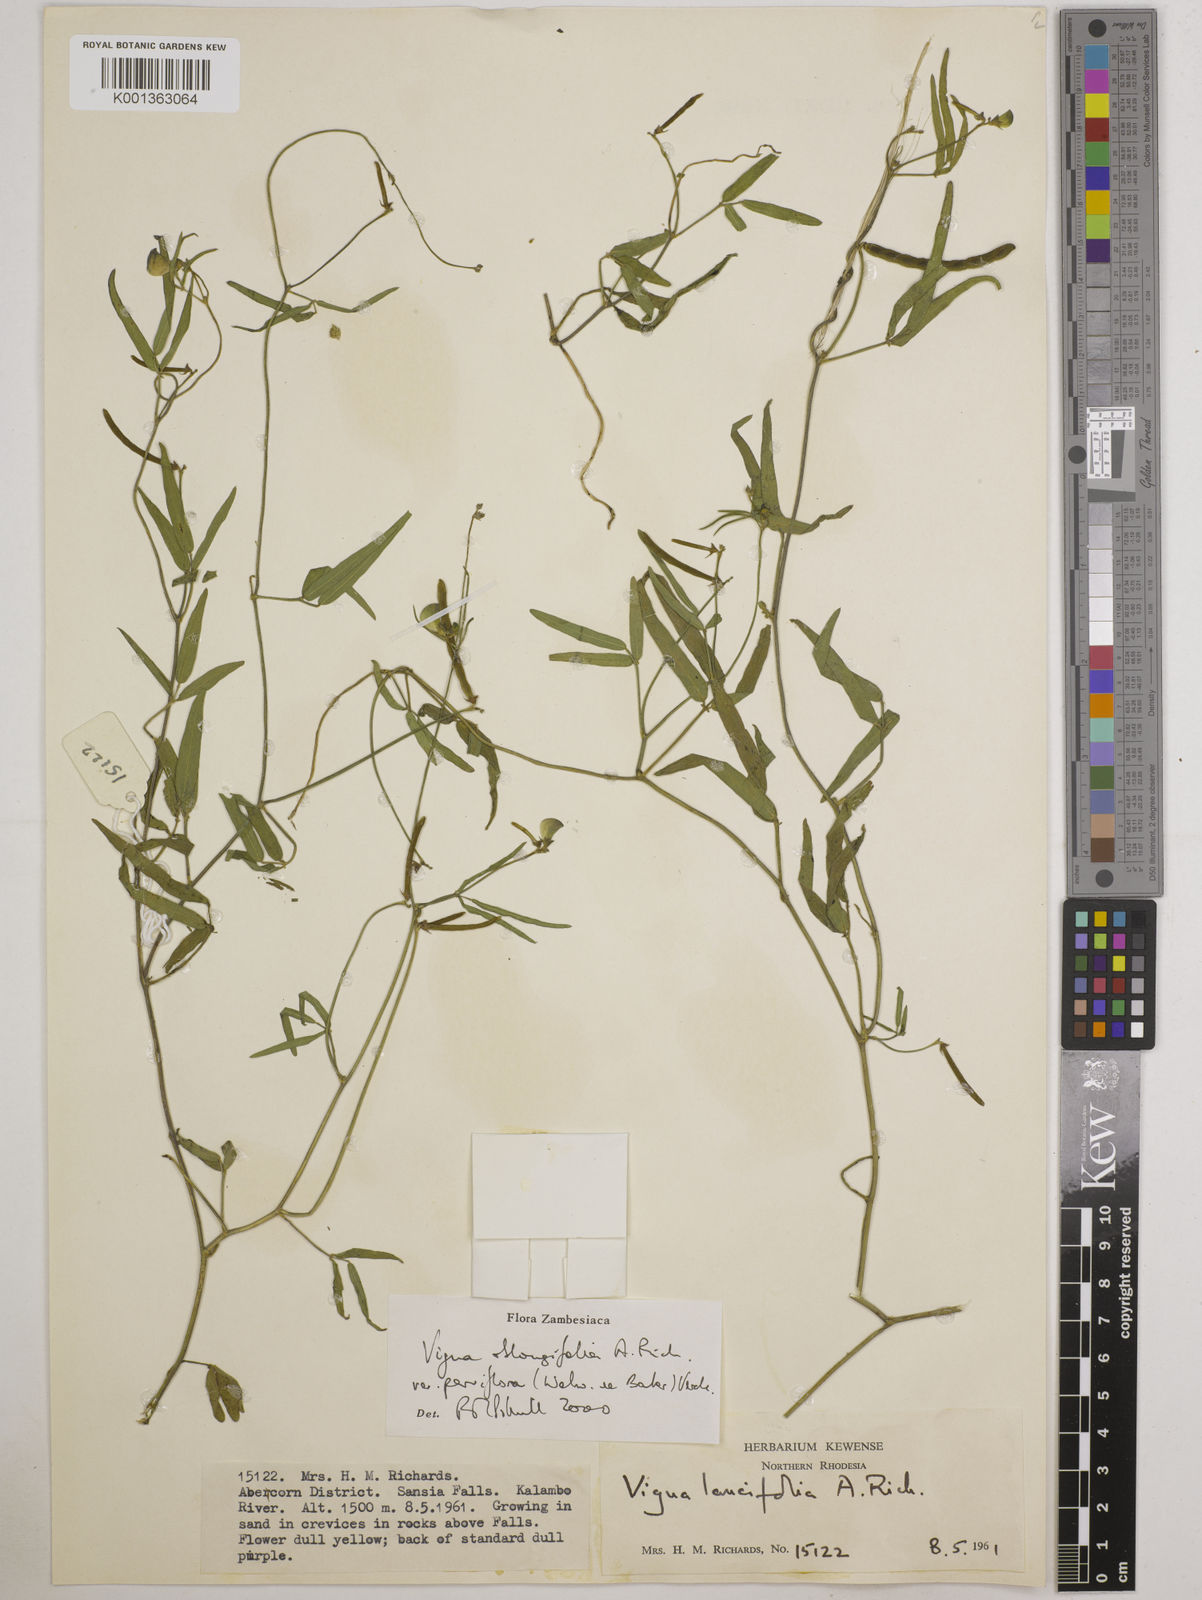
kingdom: Plantae
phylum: Tracheophyta
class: Magnoliopsida
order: Fabales
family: Fabaceae
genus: Vigna
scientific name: Vigna
